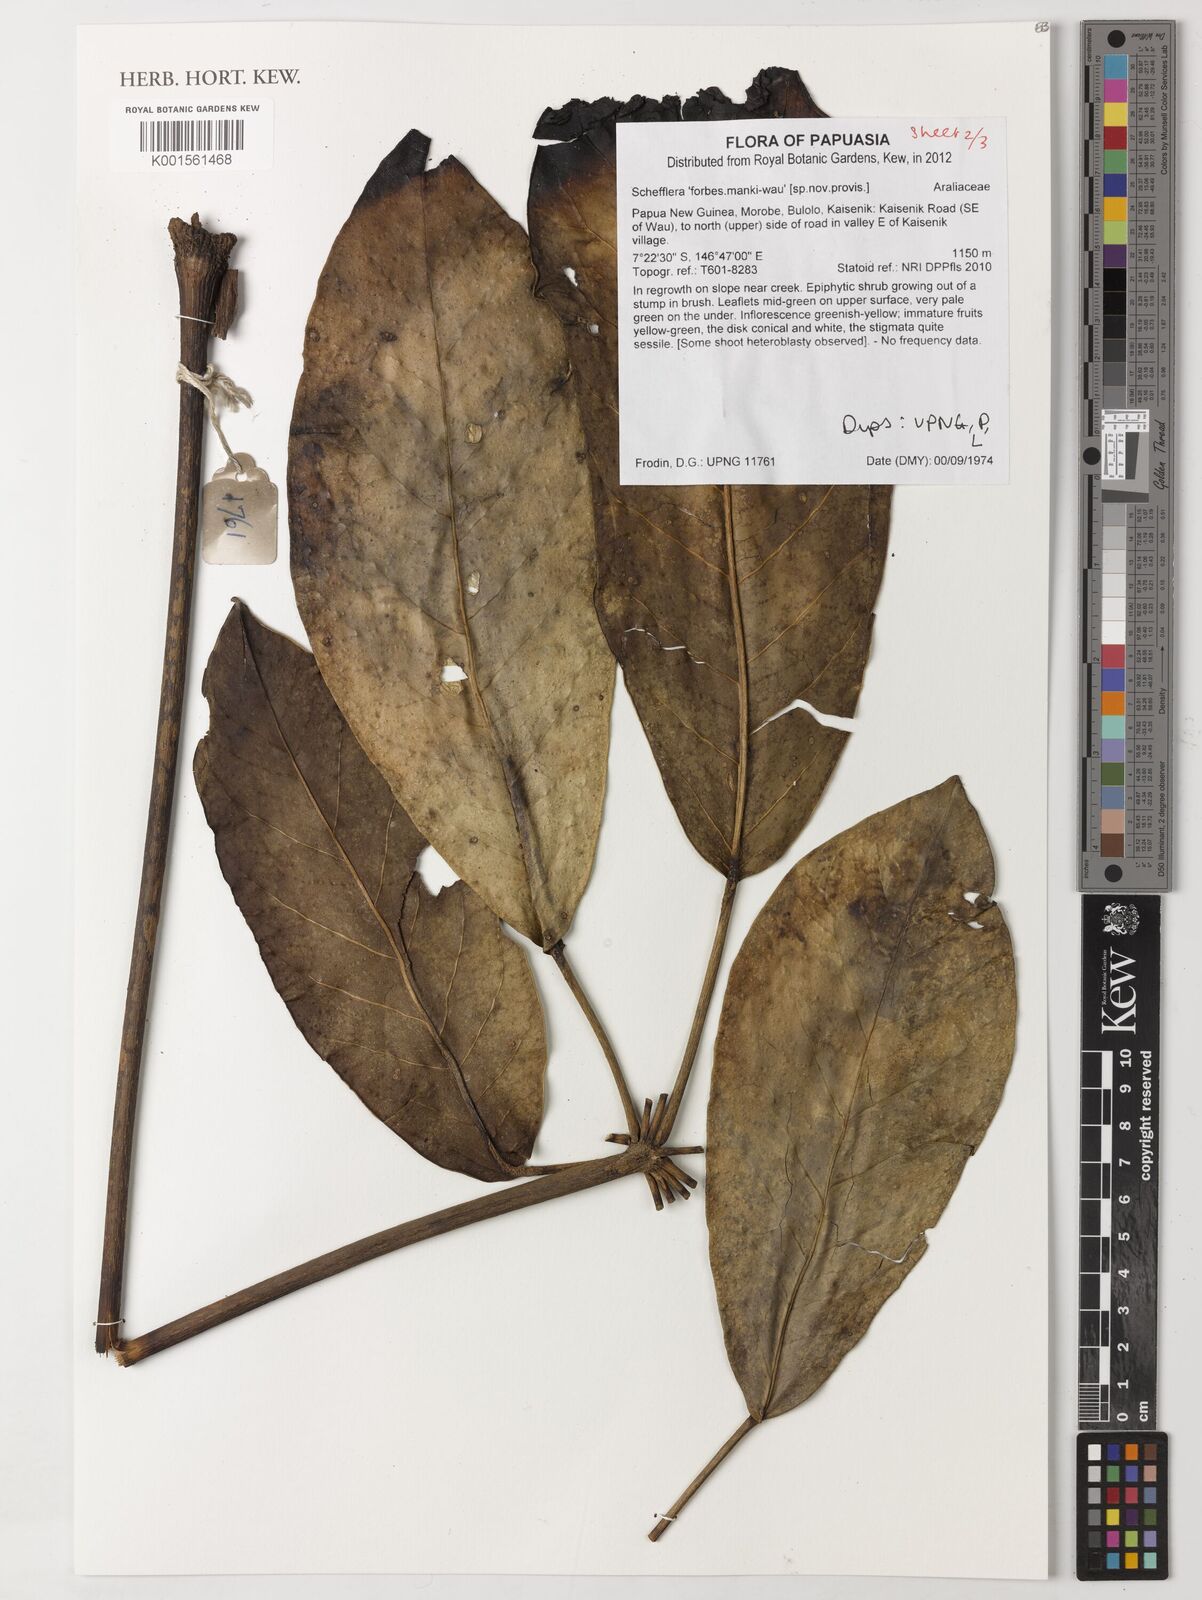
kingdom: Plantae
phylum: Tracheophyta
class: Magnoliopsida
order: Apiales
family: Araliaceae
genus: Schefflera
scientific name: Schefflera
